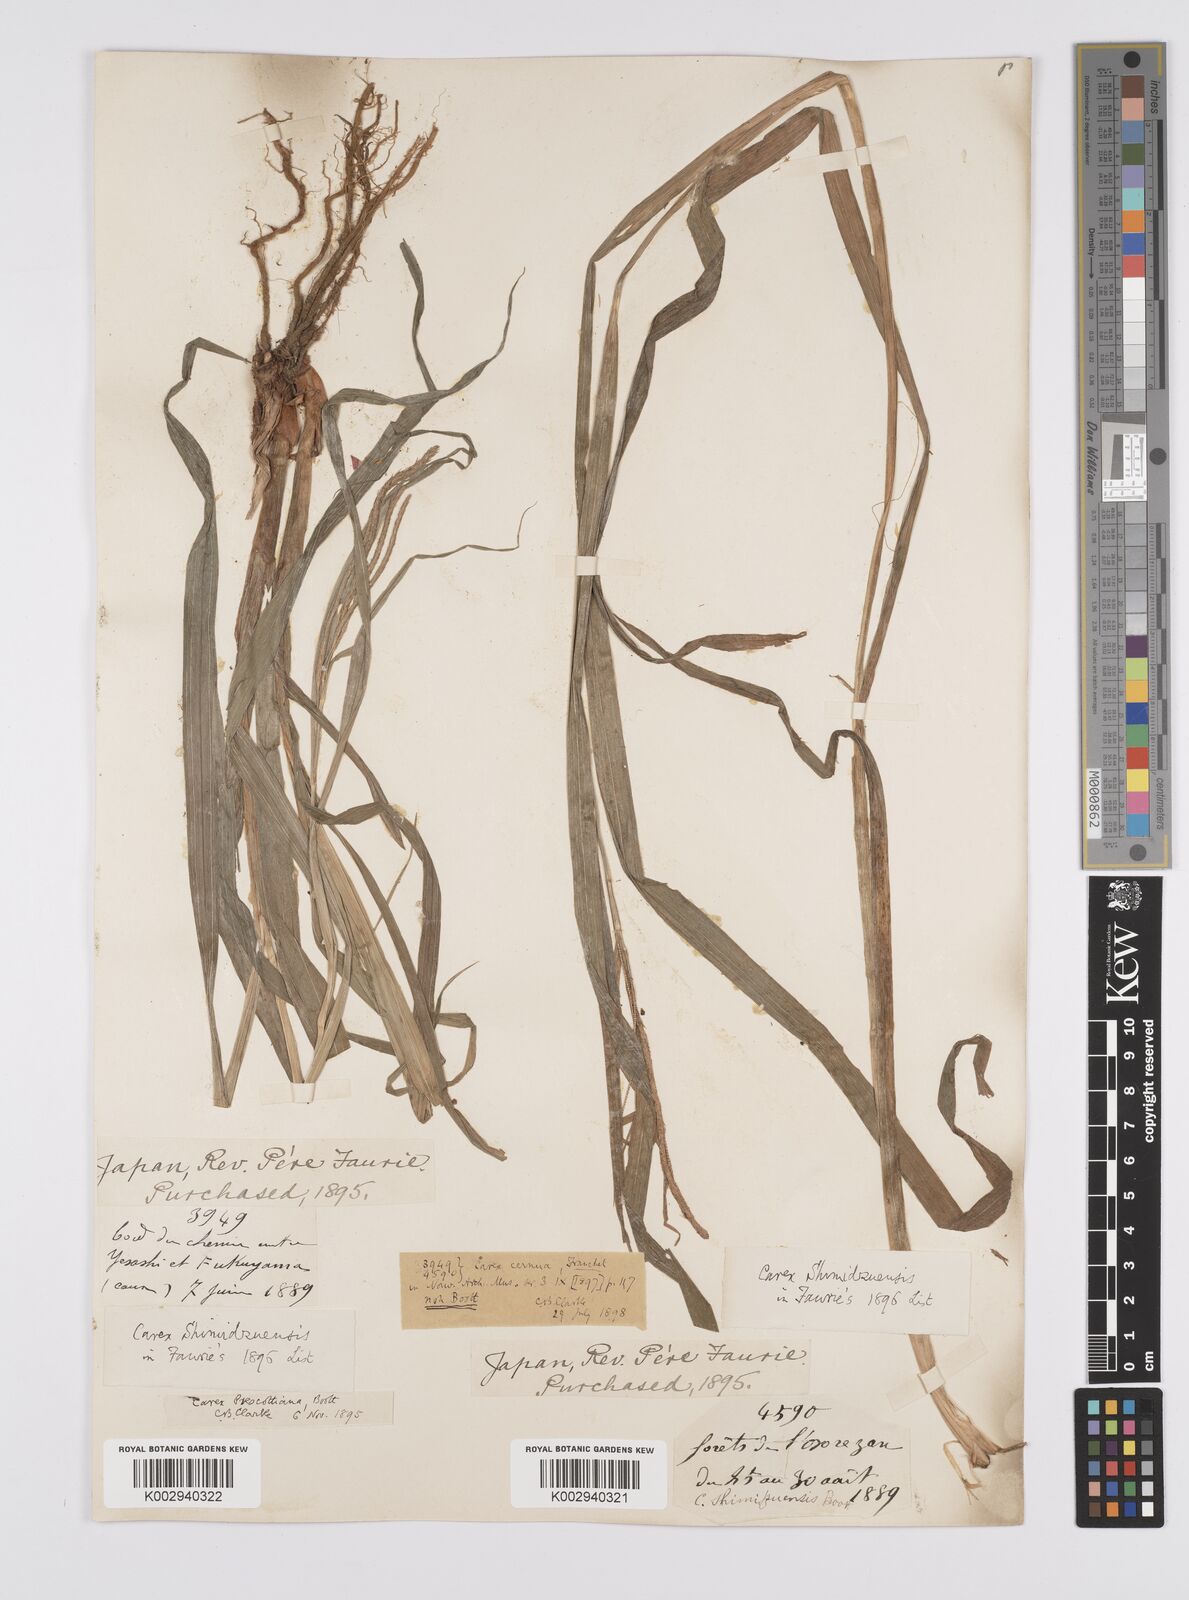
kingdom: Plantae
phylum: Tracheophyta
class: Liliopsida
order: Poales
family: Cyperaceae
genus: Carex
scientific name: Carex prescottiana
